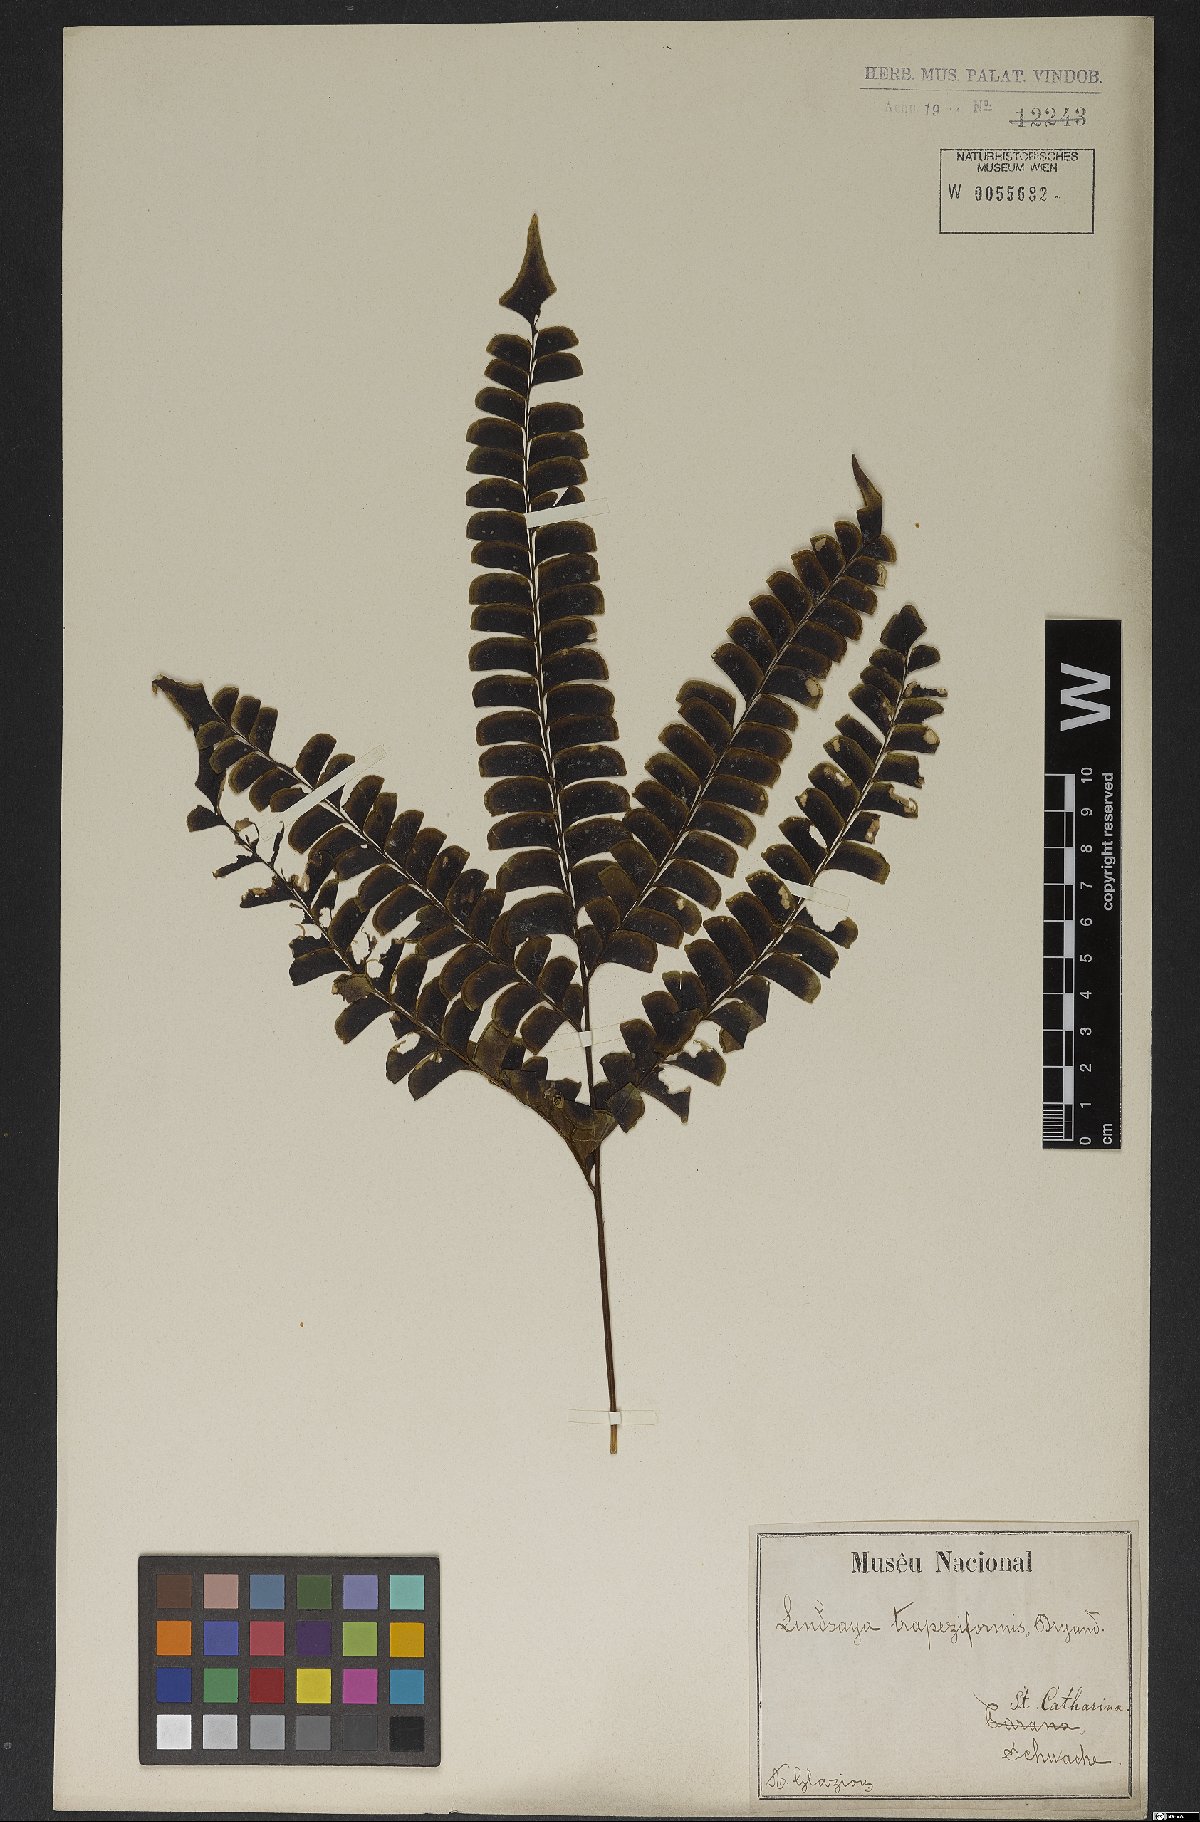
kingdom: Plantae
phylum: Tracheophyta
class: Polypodiopsida
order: Polypodiales
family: Lindsaeaceae
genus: Lindsaea
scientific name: Lindsaea lancea
